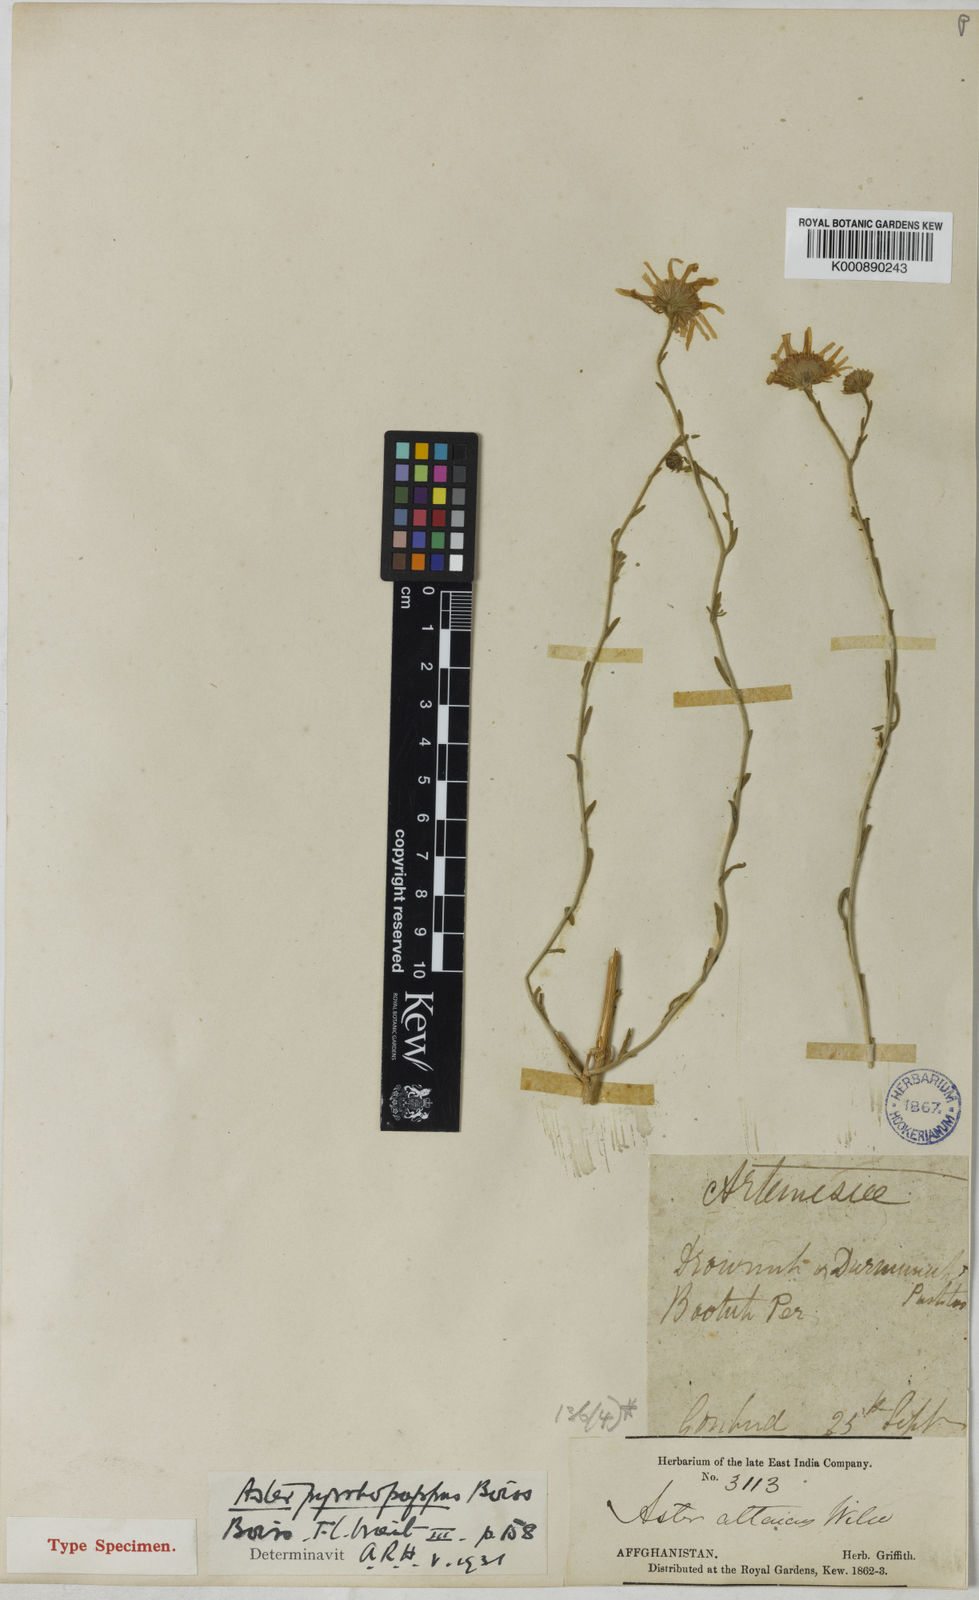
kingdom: Plantae
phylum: Tracheophyta
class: Magnoliopsida
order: Asterales
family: Asteraceae
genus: Aster
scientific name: Aster
